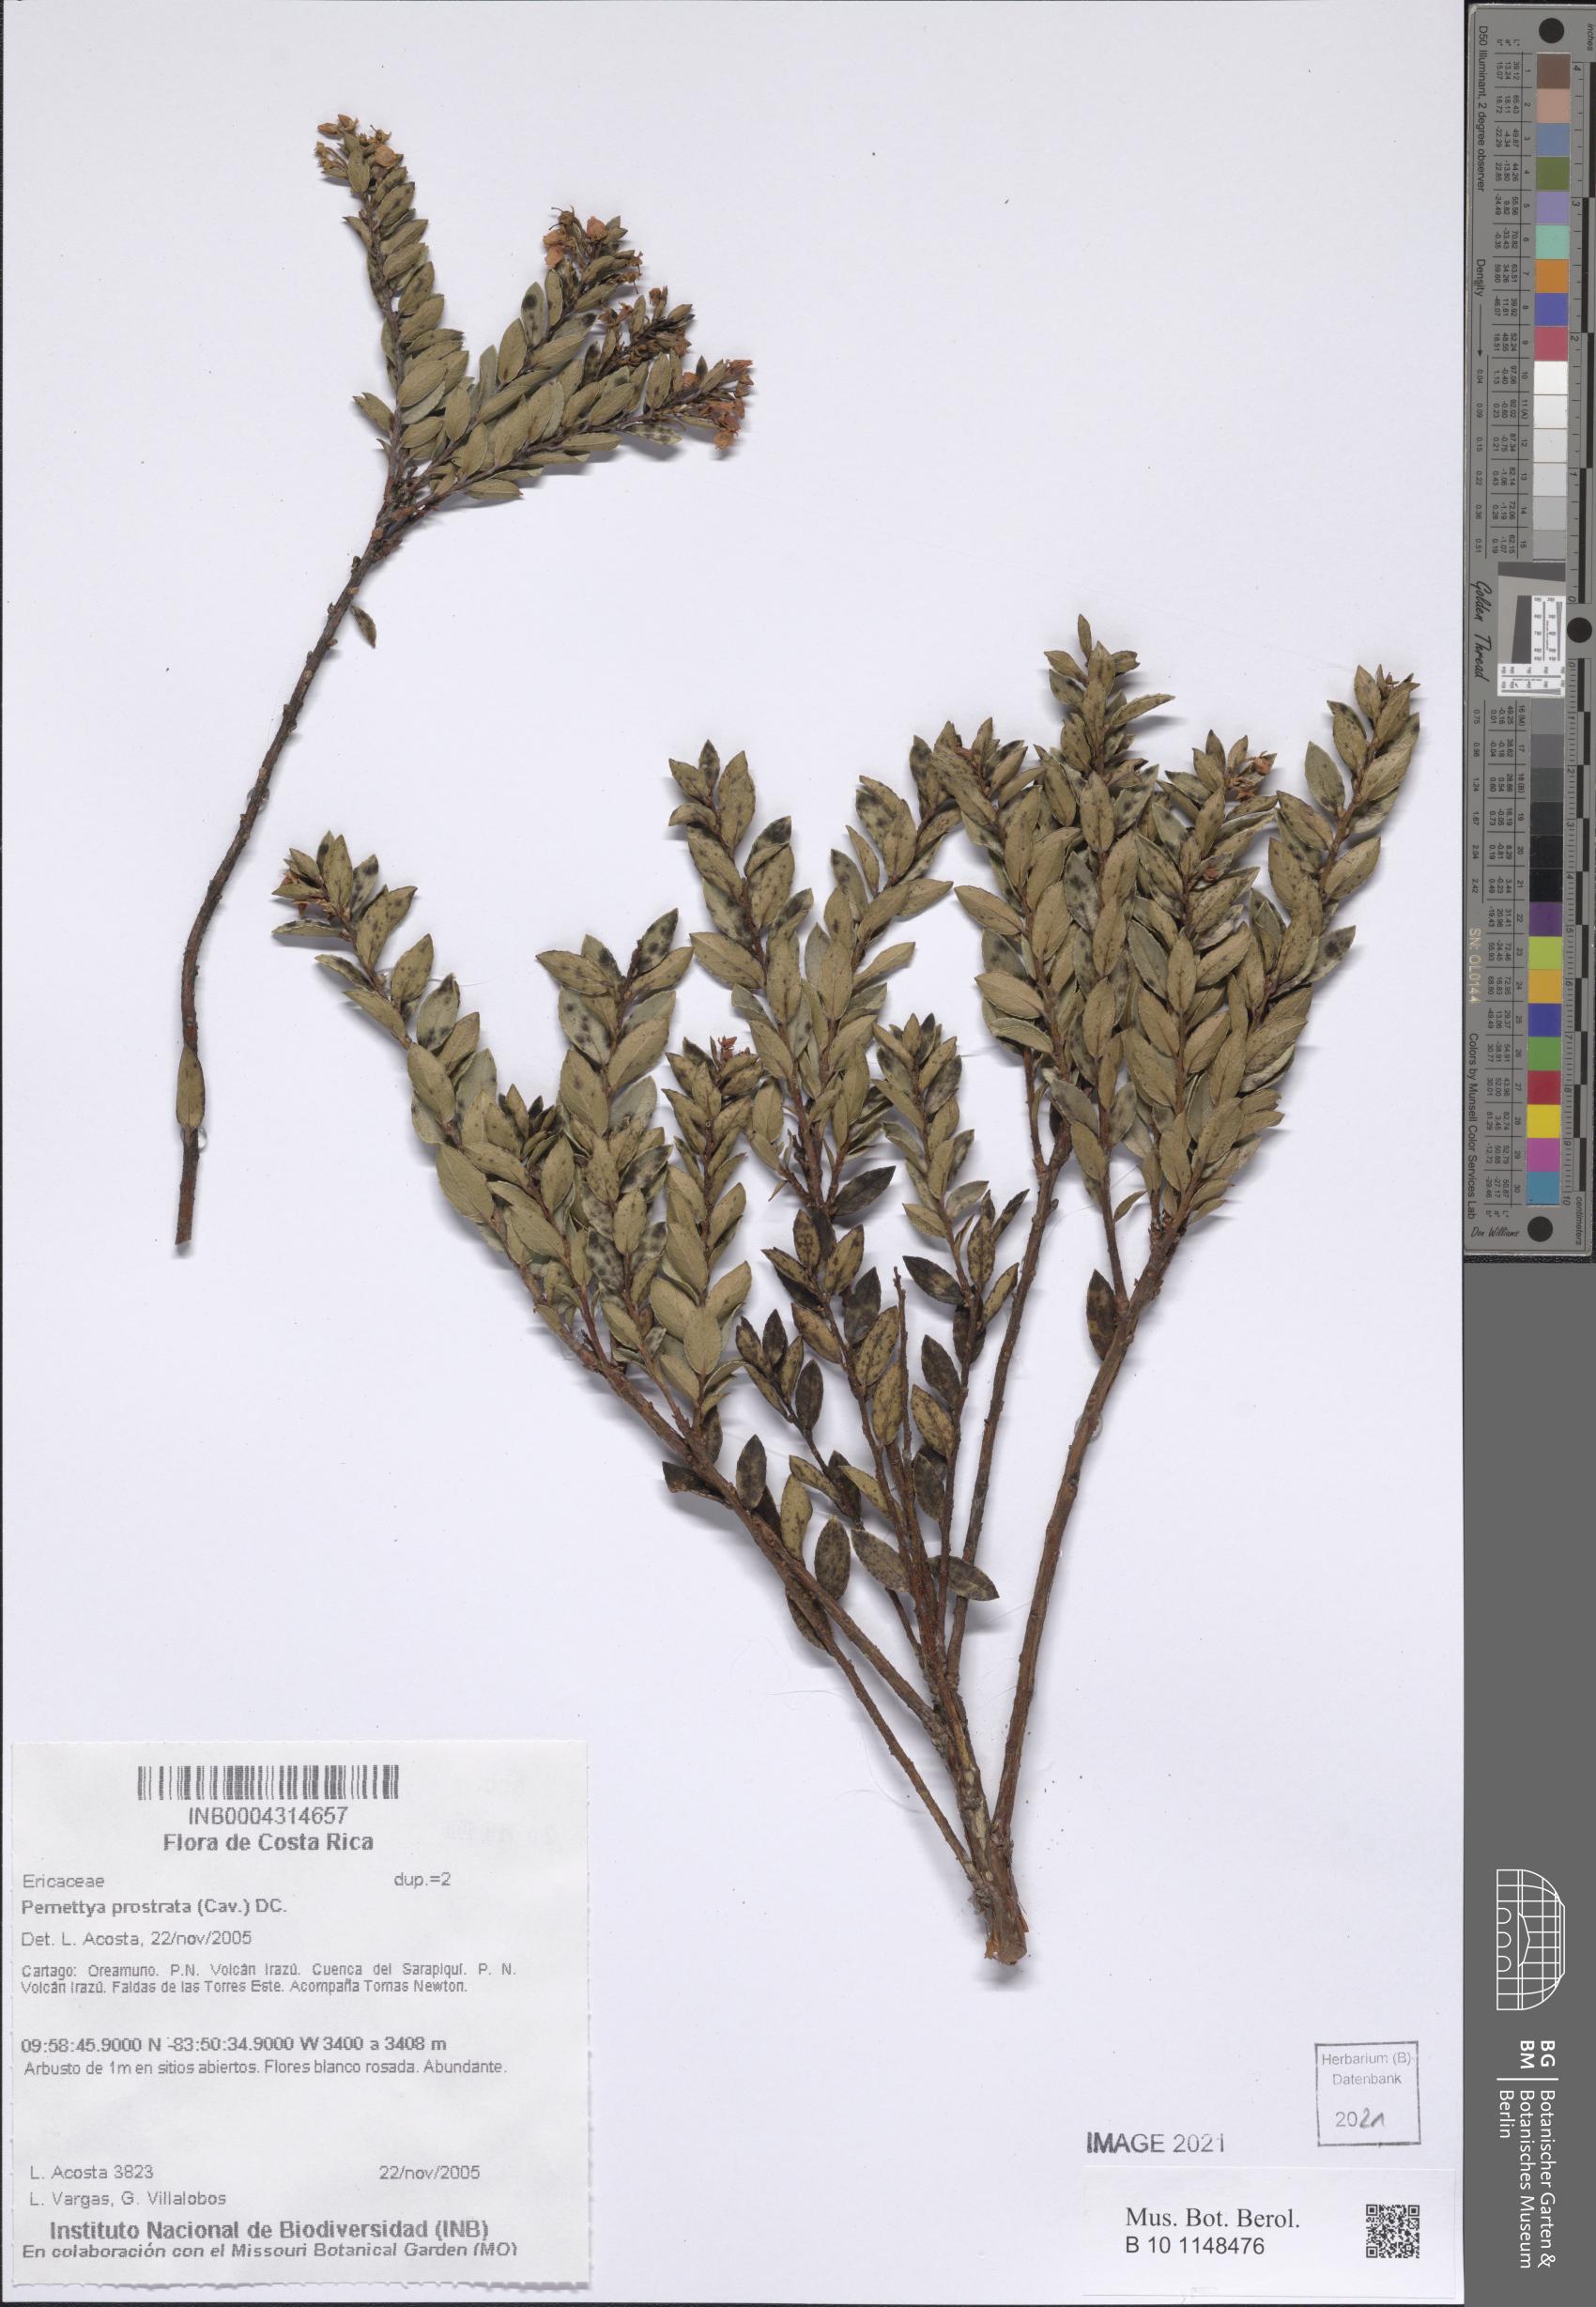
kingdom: Plantae
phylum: Tracheophyta
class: Magnoliopsida
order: Ericales
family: Ericaceae
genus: Gaultheria
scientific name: Gaultheria myrsinoides
